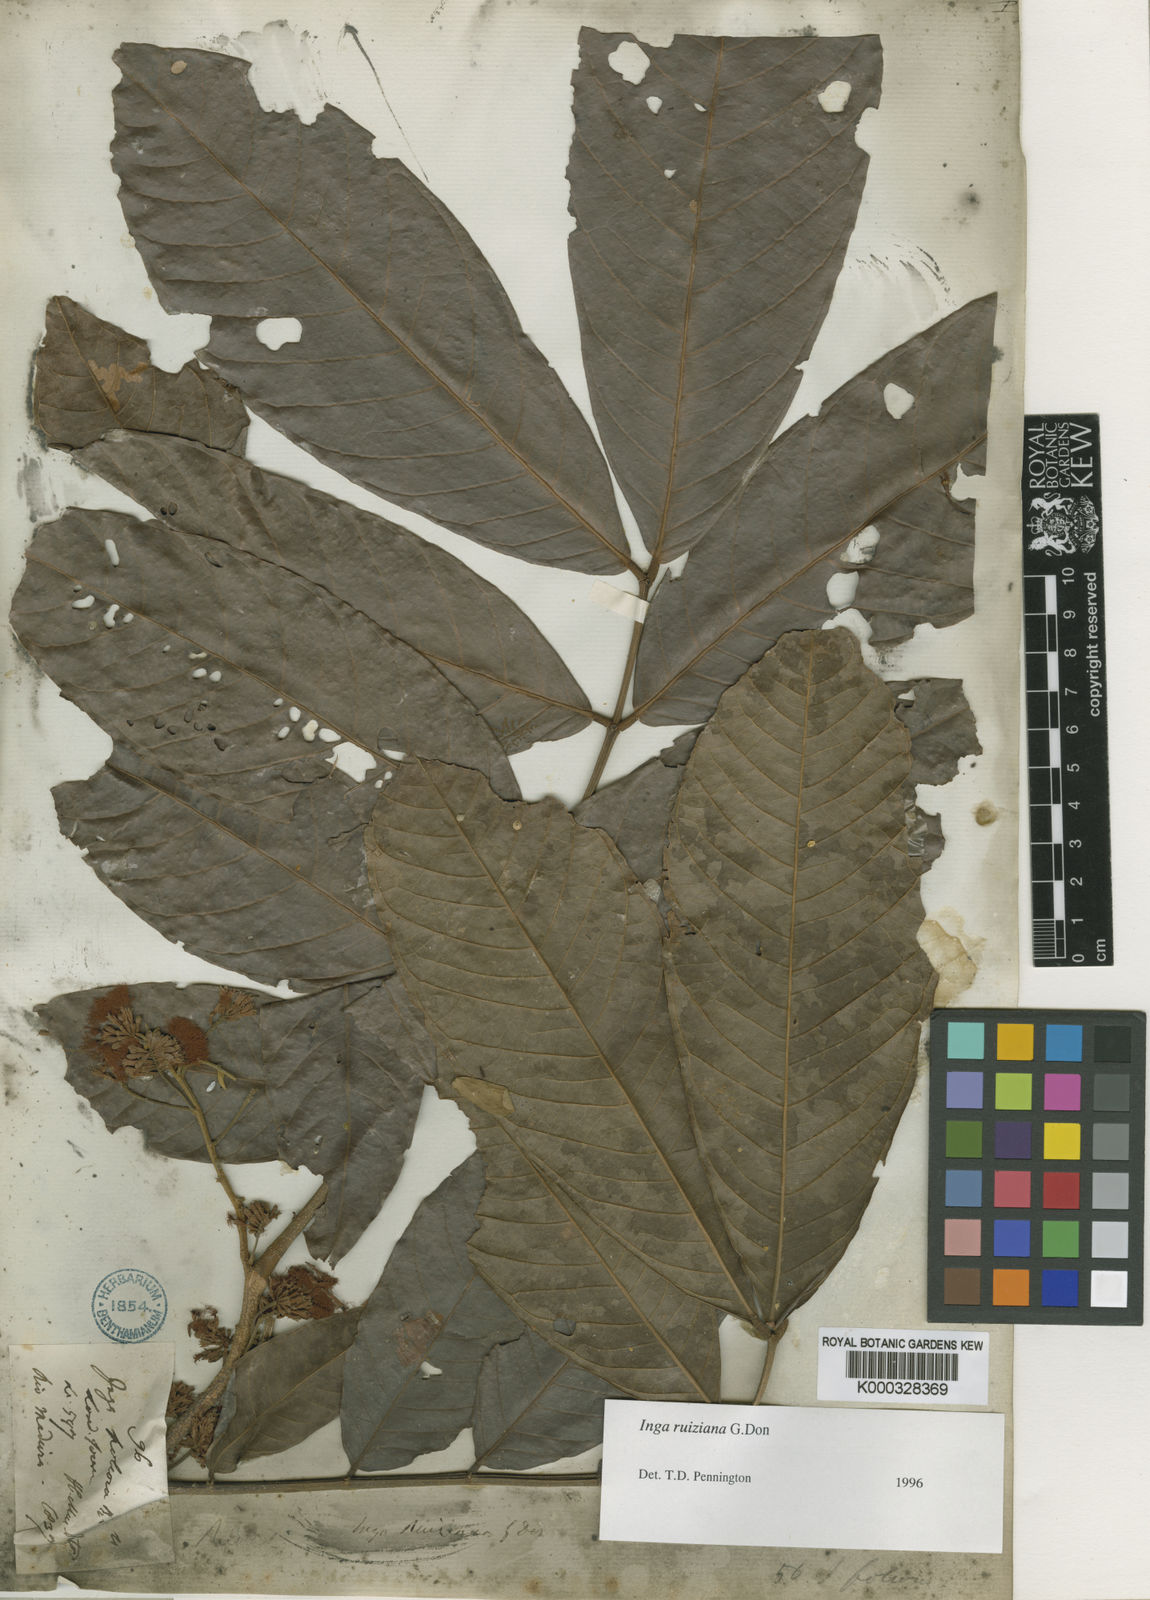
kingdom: Plantae
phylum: Tracheophyta
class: Magnoliopsida
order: Fabales
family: Fabaceae
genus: Inga
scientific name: Inga ruiziana
